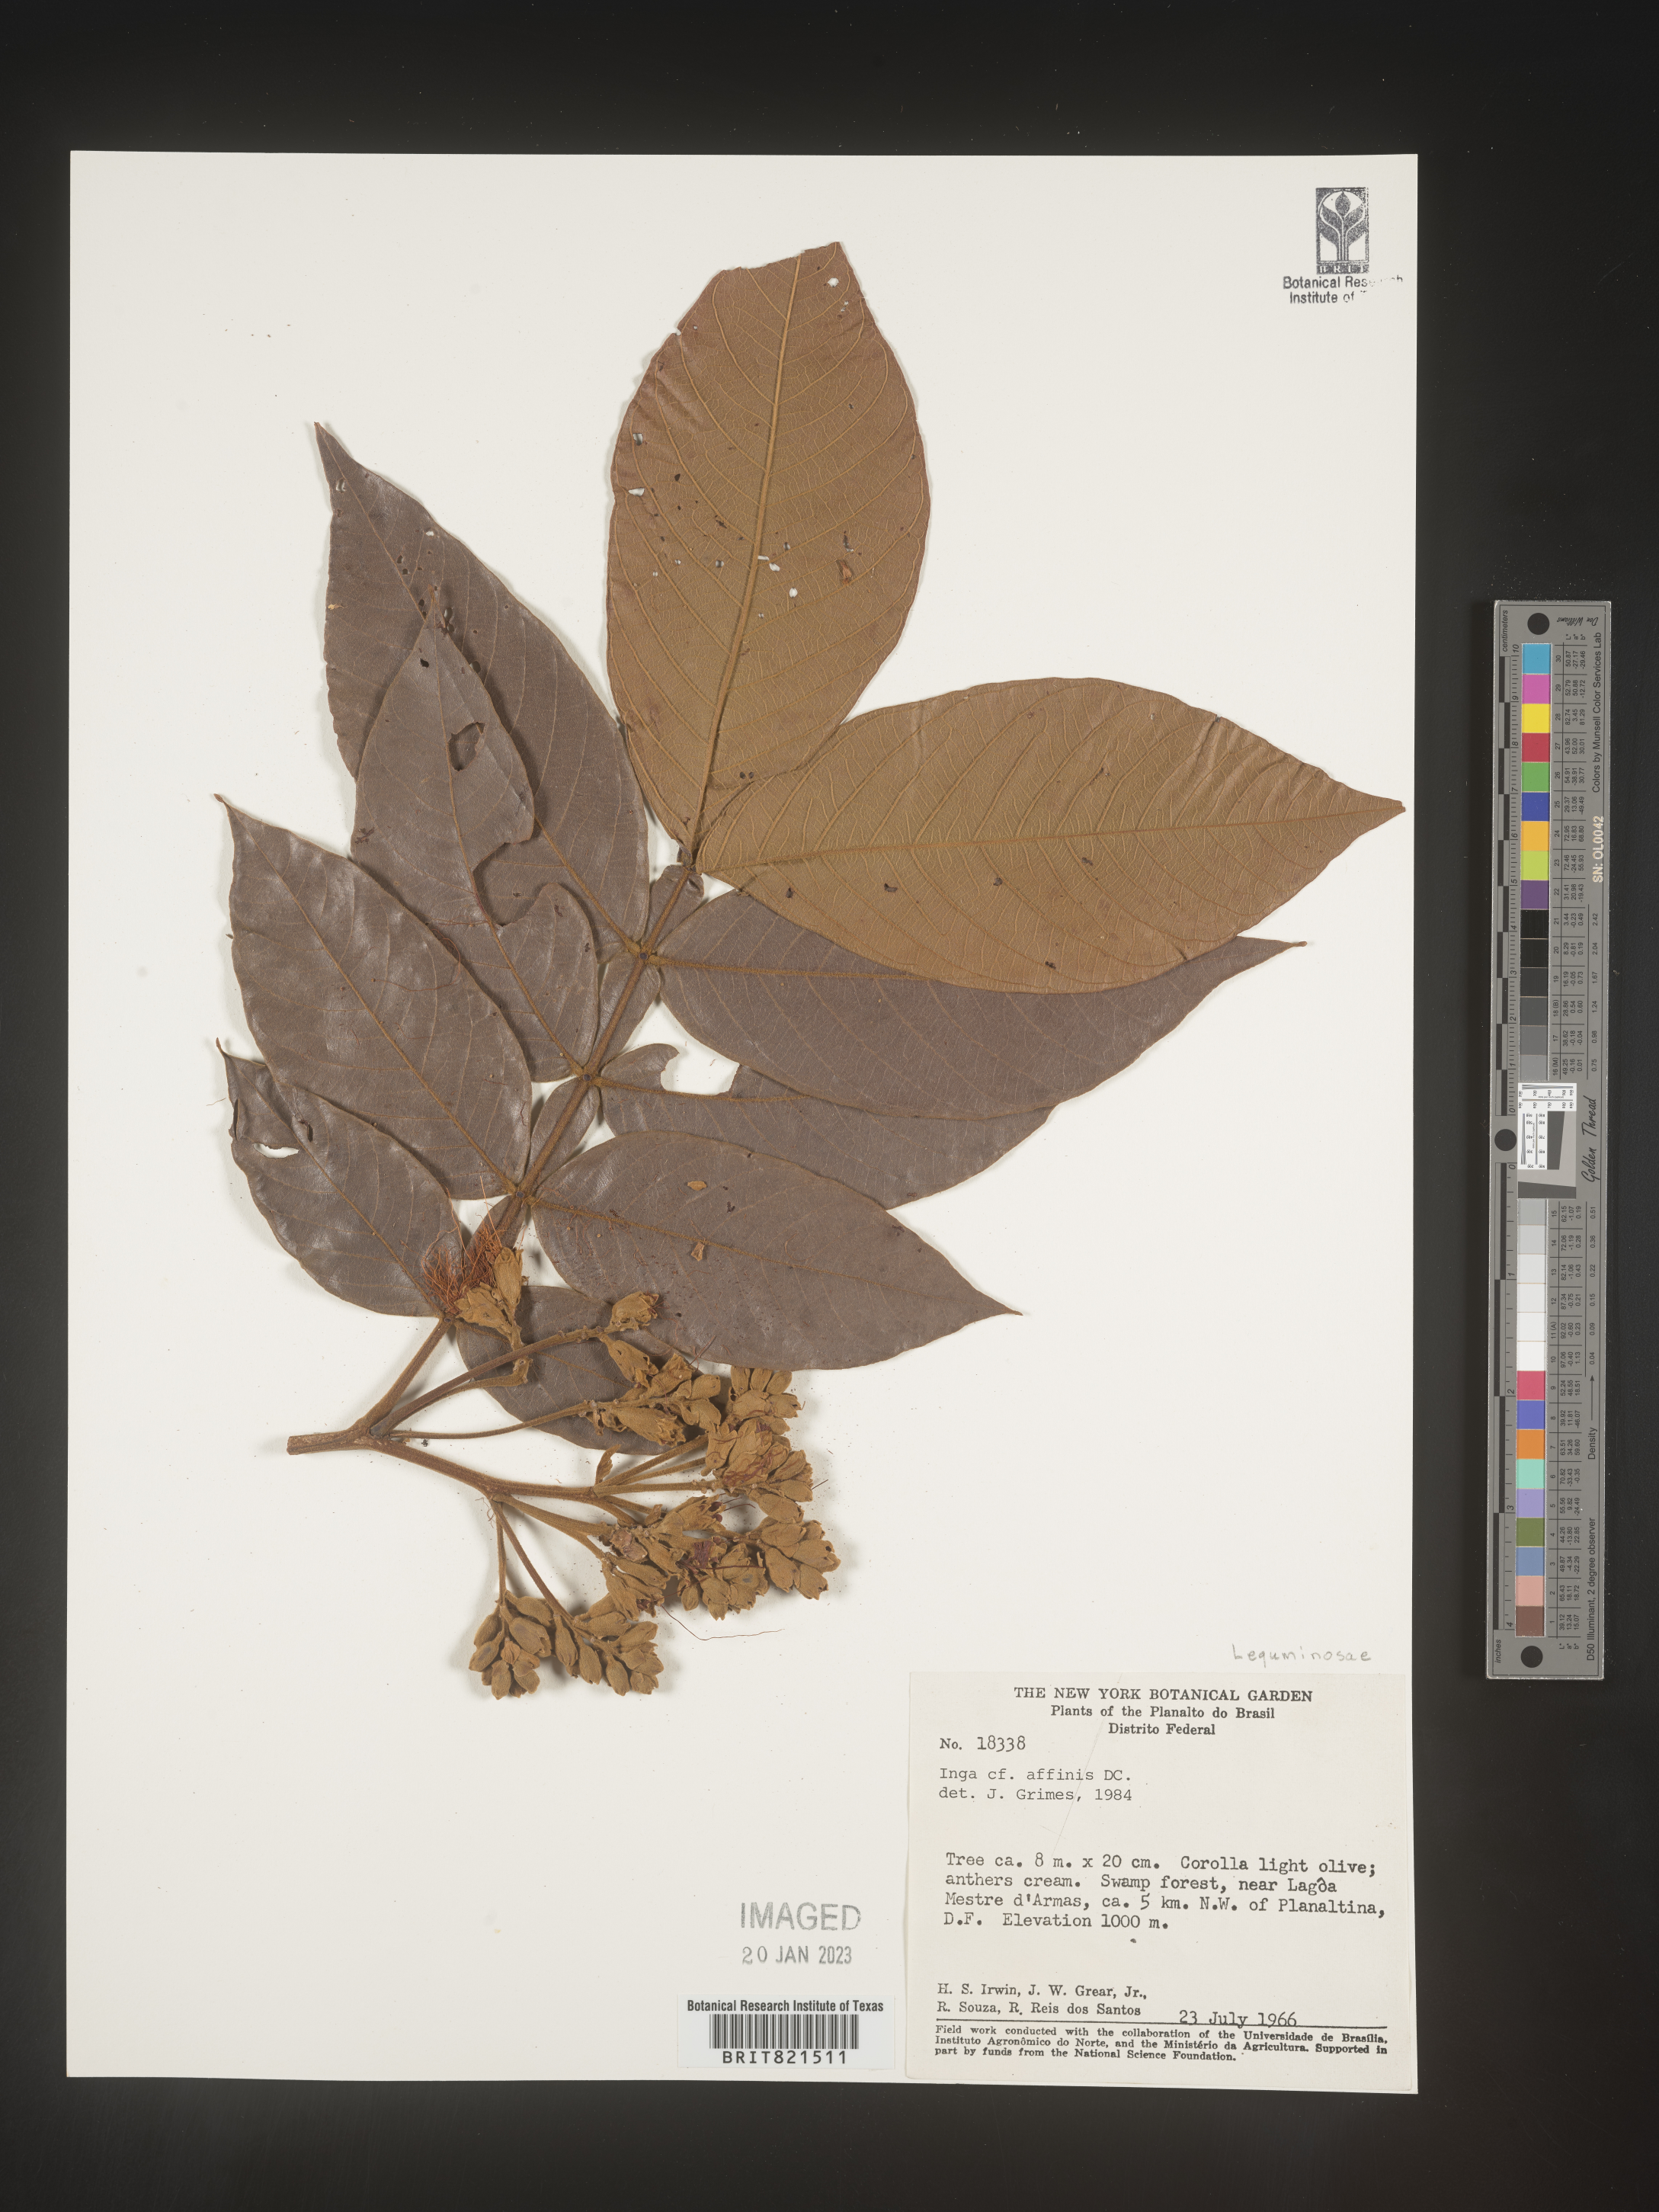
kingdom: Plantae
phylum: Tracheophyta
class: Magnoliopsida
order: Fabales
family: Fabaceae
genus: Inga
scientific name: Inga
